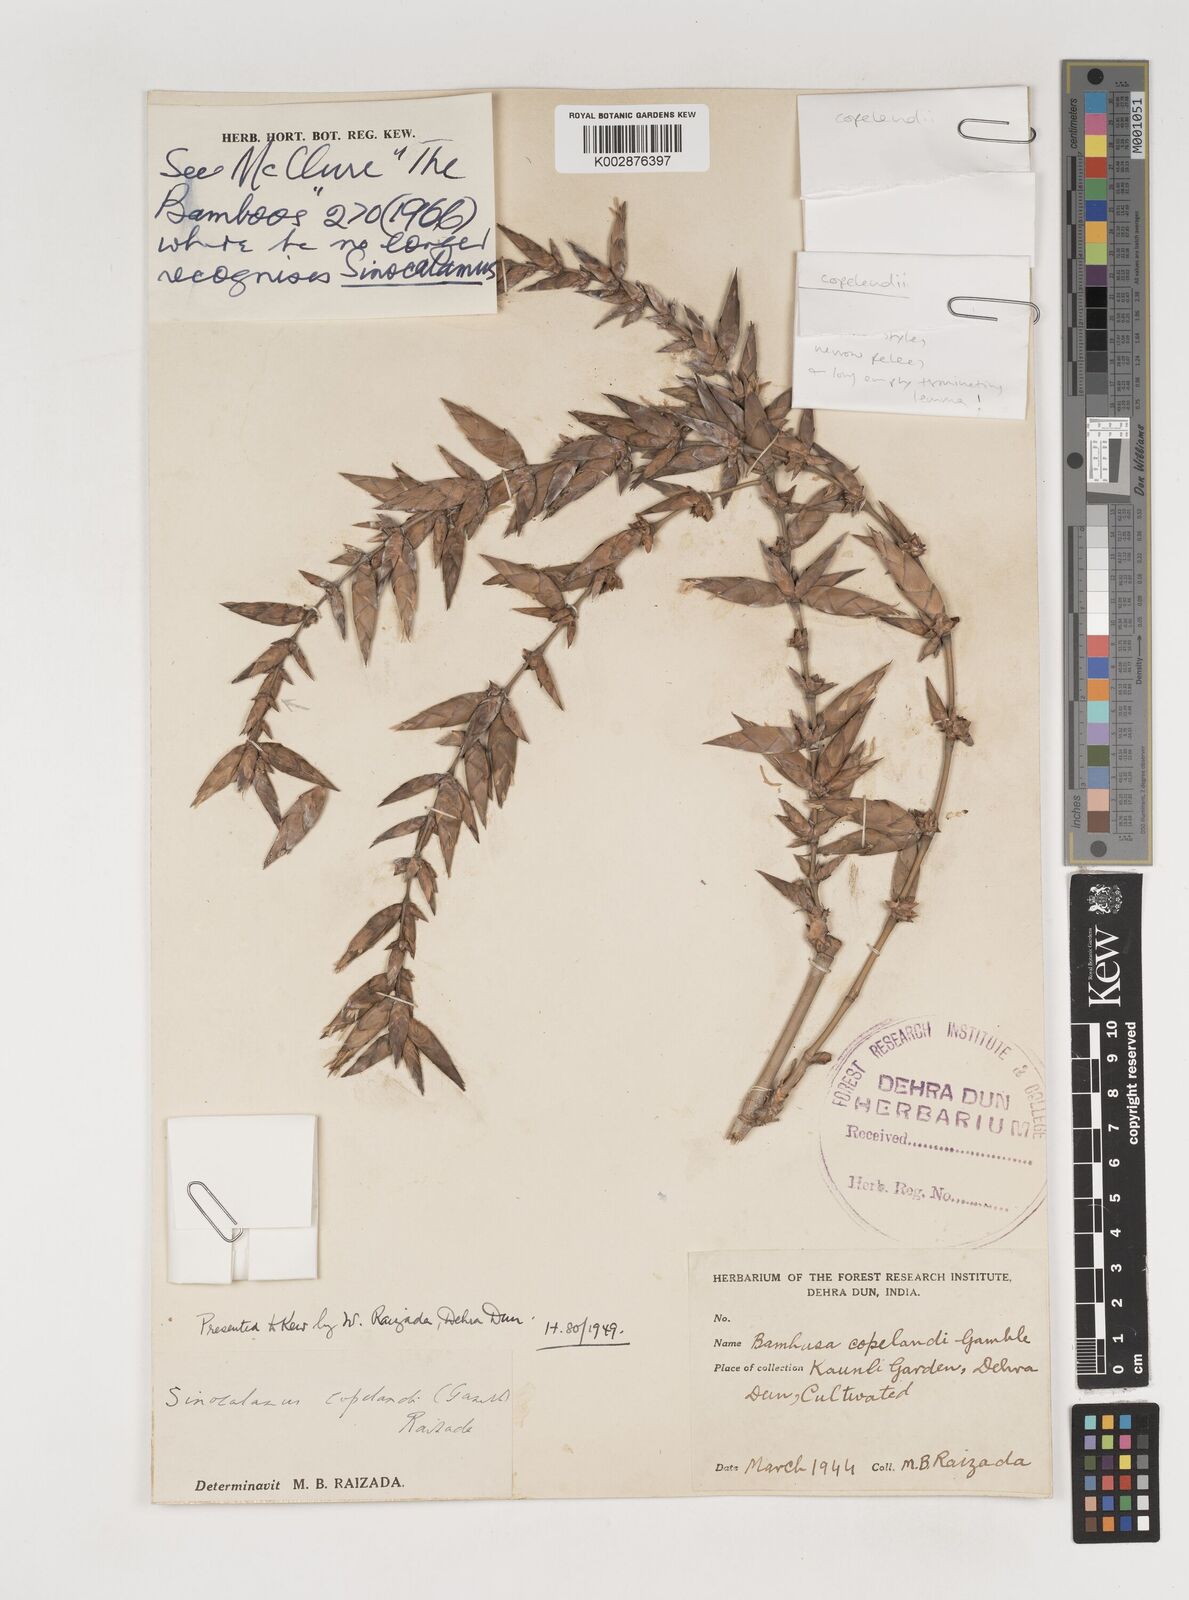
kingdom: Plantae
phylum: Tracheophyta
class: Liliopsida
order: Poales
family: Poaceae
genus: Bambusa
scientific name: Bambusa copelandii
